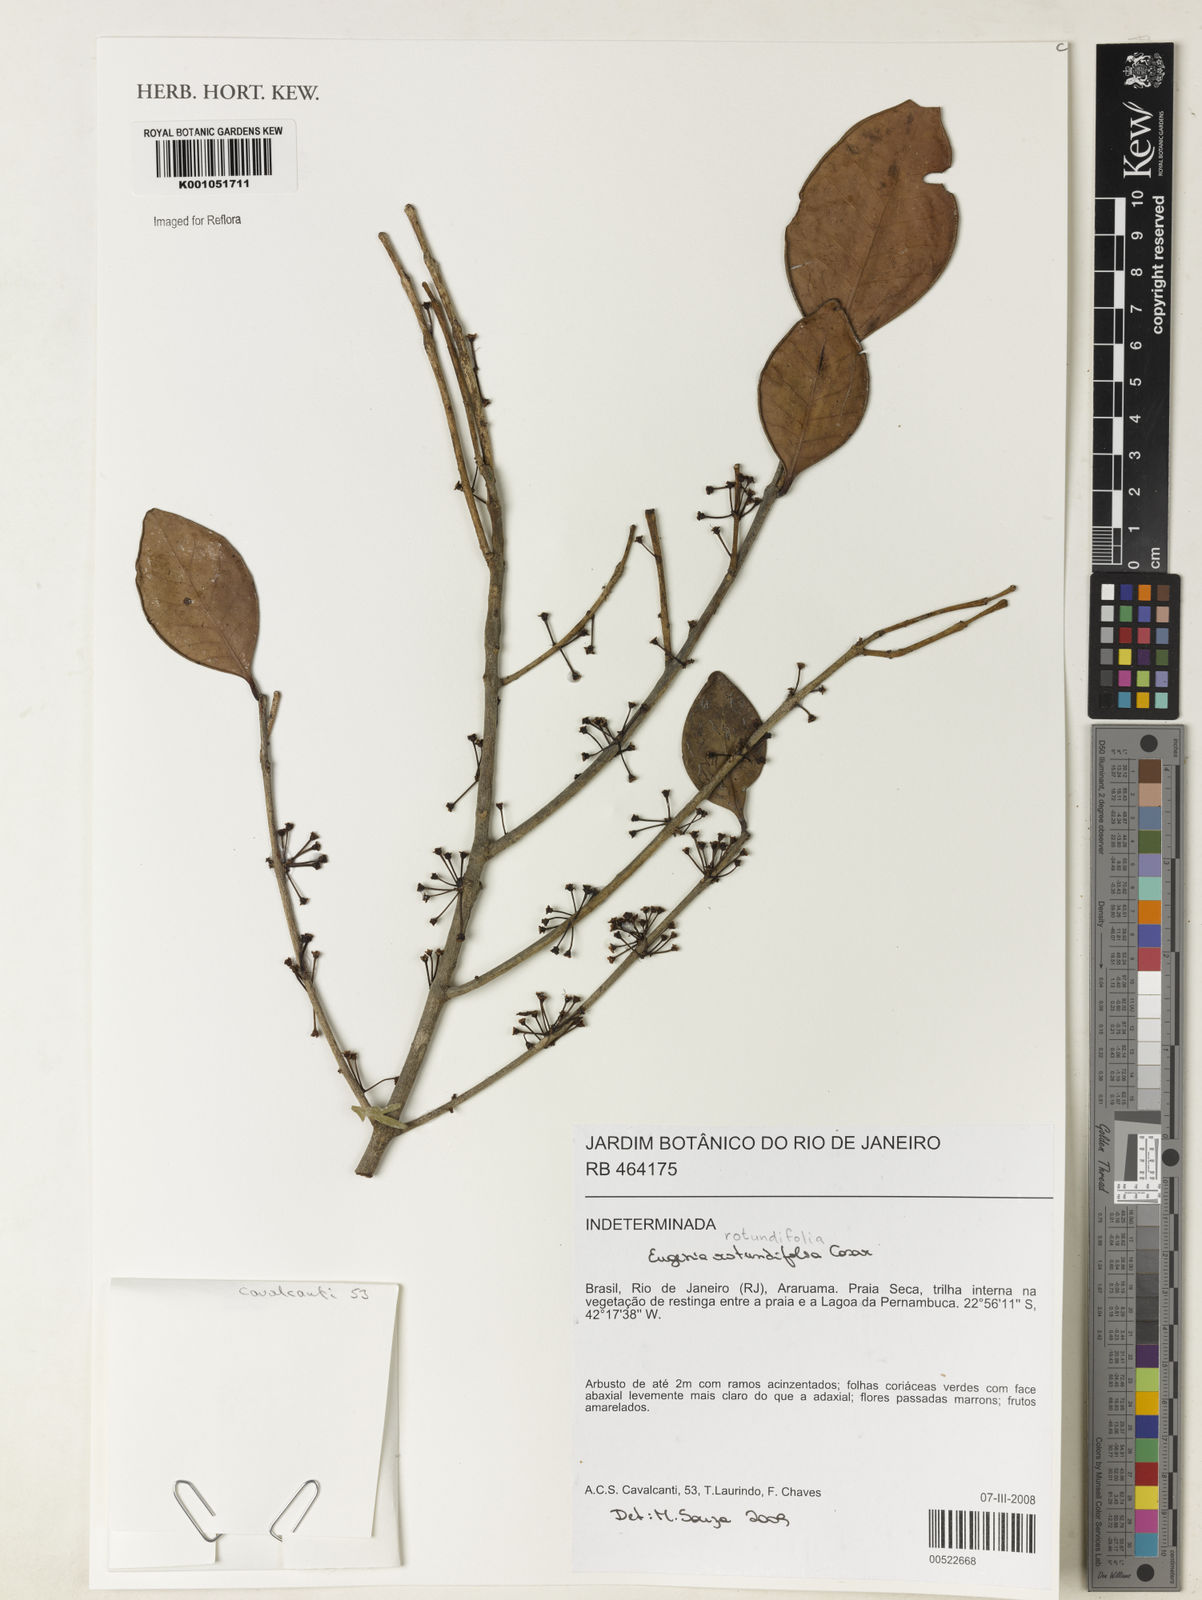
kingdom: Plantae
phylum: Tracheophyta
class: Magnoliopsida
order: Myrtales
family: Myrtaceae
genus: Eugenia
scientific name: Eugenia casarettoana
